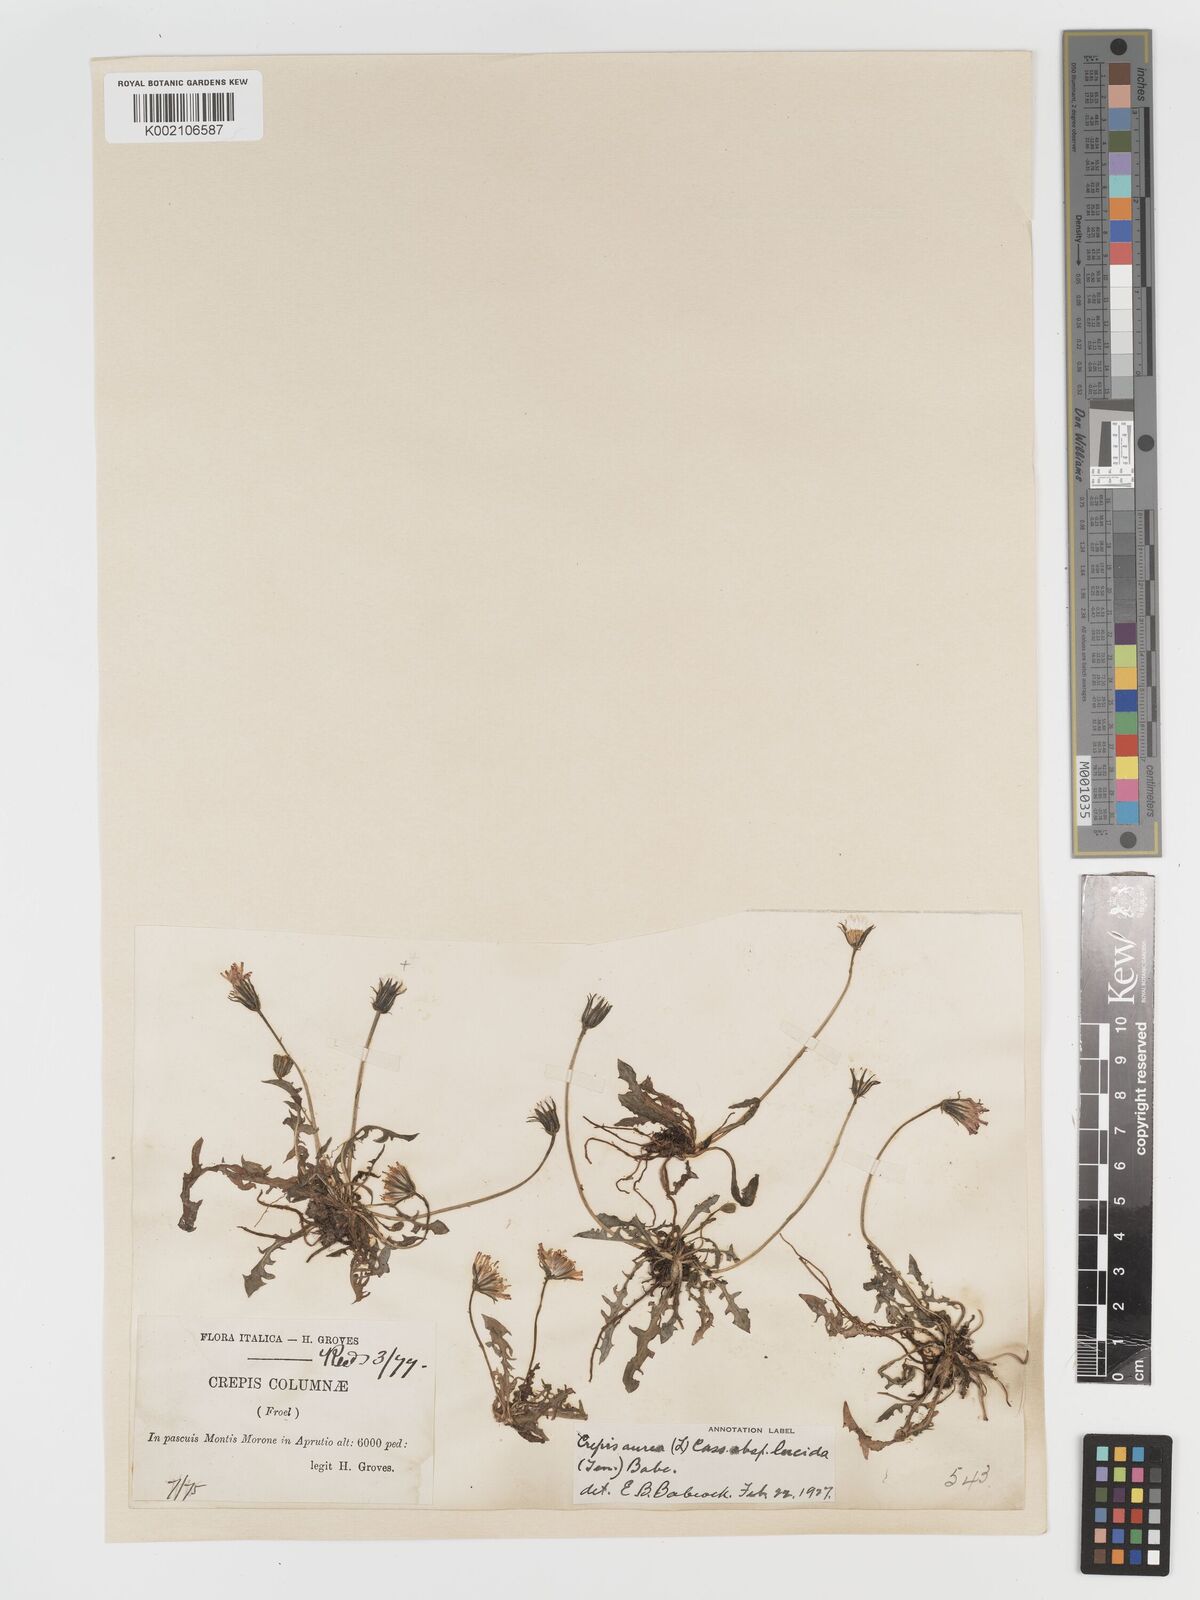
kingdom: Plantae
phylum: Tracheophyta
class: Magnoliopsida
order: Asterales
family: Asteraceae
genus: Crepis
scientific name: Crepis aurea
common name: Golden hawk's-beard
